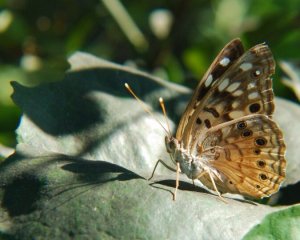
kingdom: Animalia
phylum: Arthropoda
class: Insecta
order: Lepidoptera
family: Nymphalidae
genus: Asterocampa
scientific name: Asterocampa celtis
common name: Hackberry Emperor
